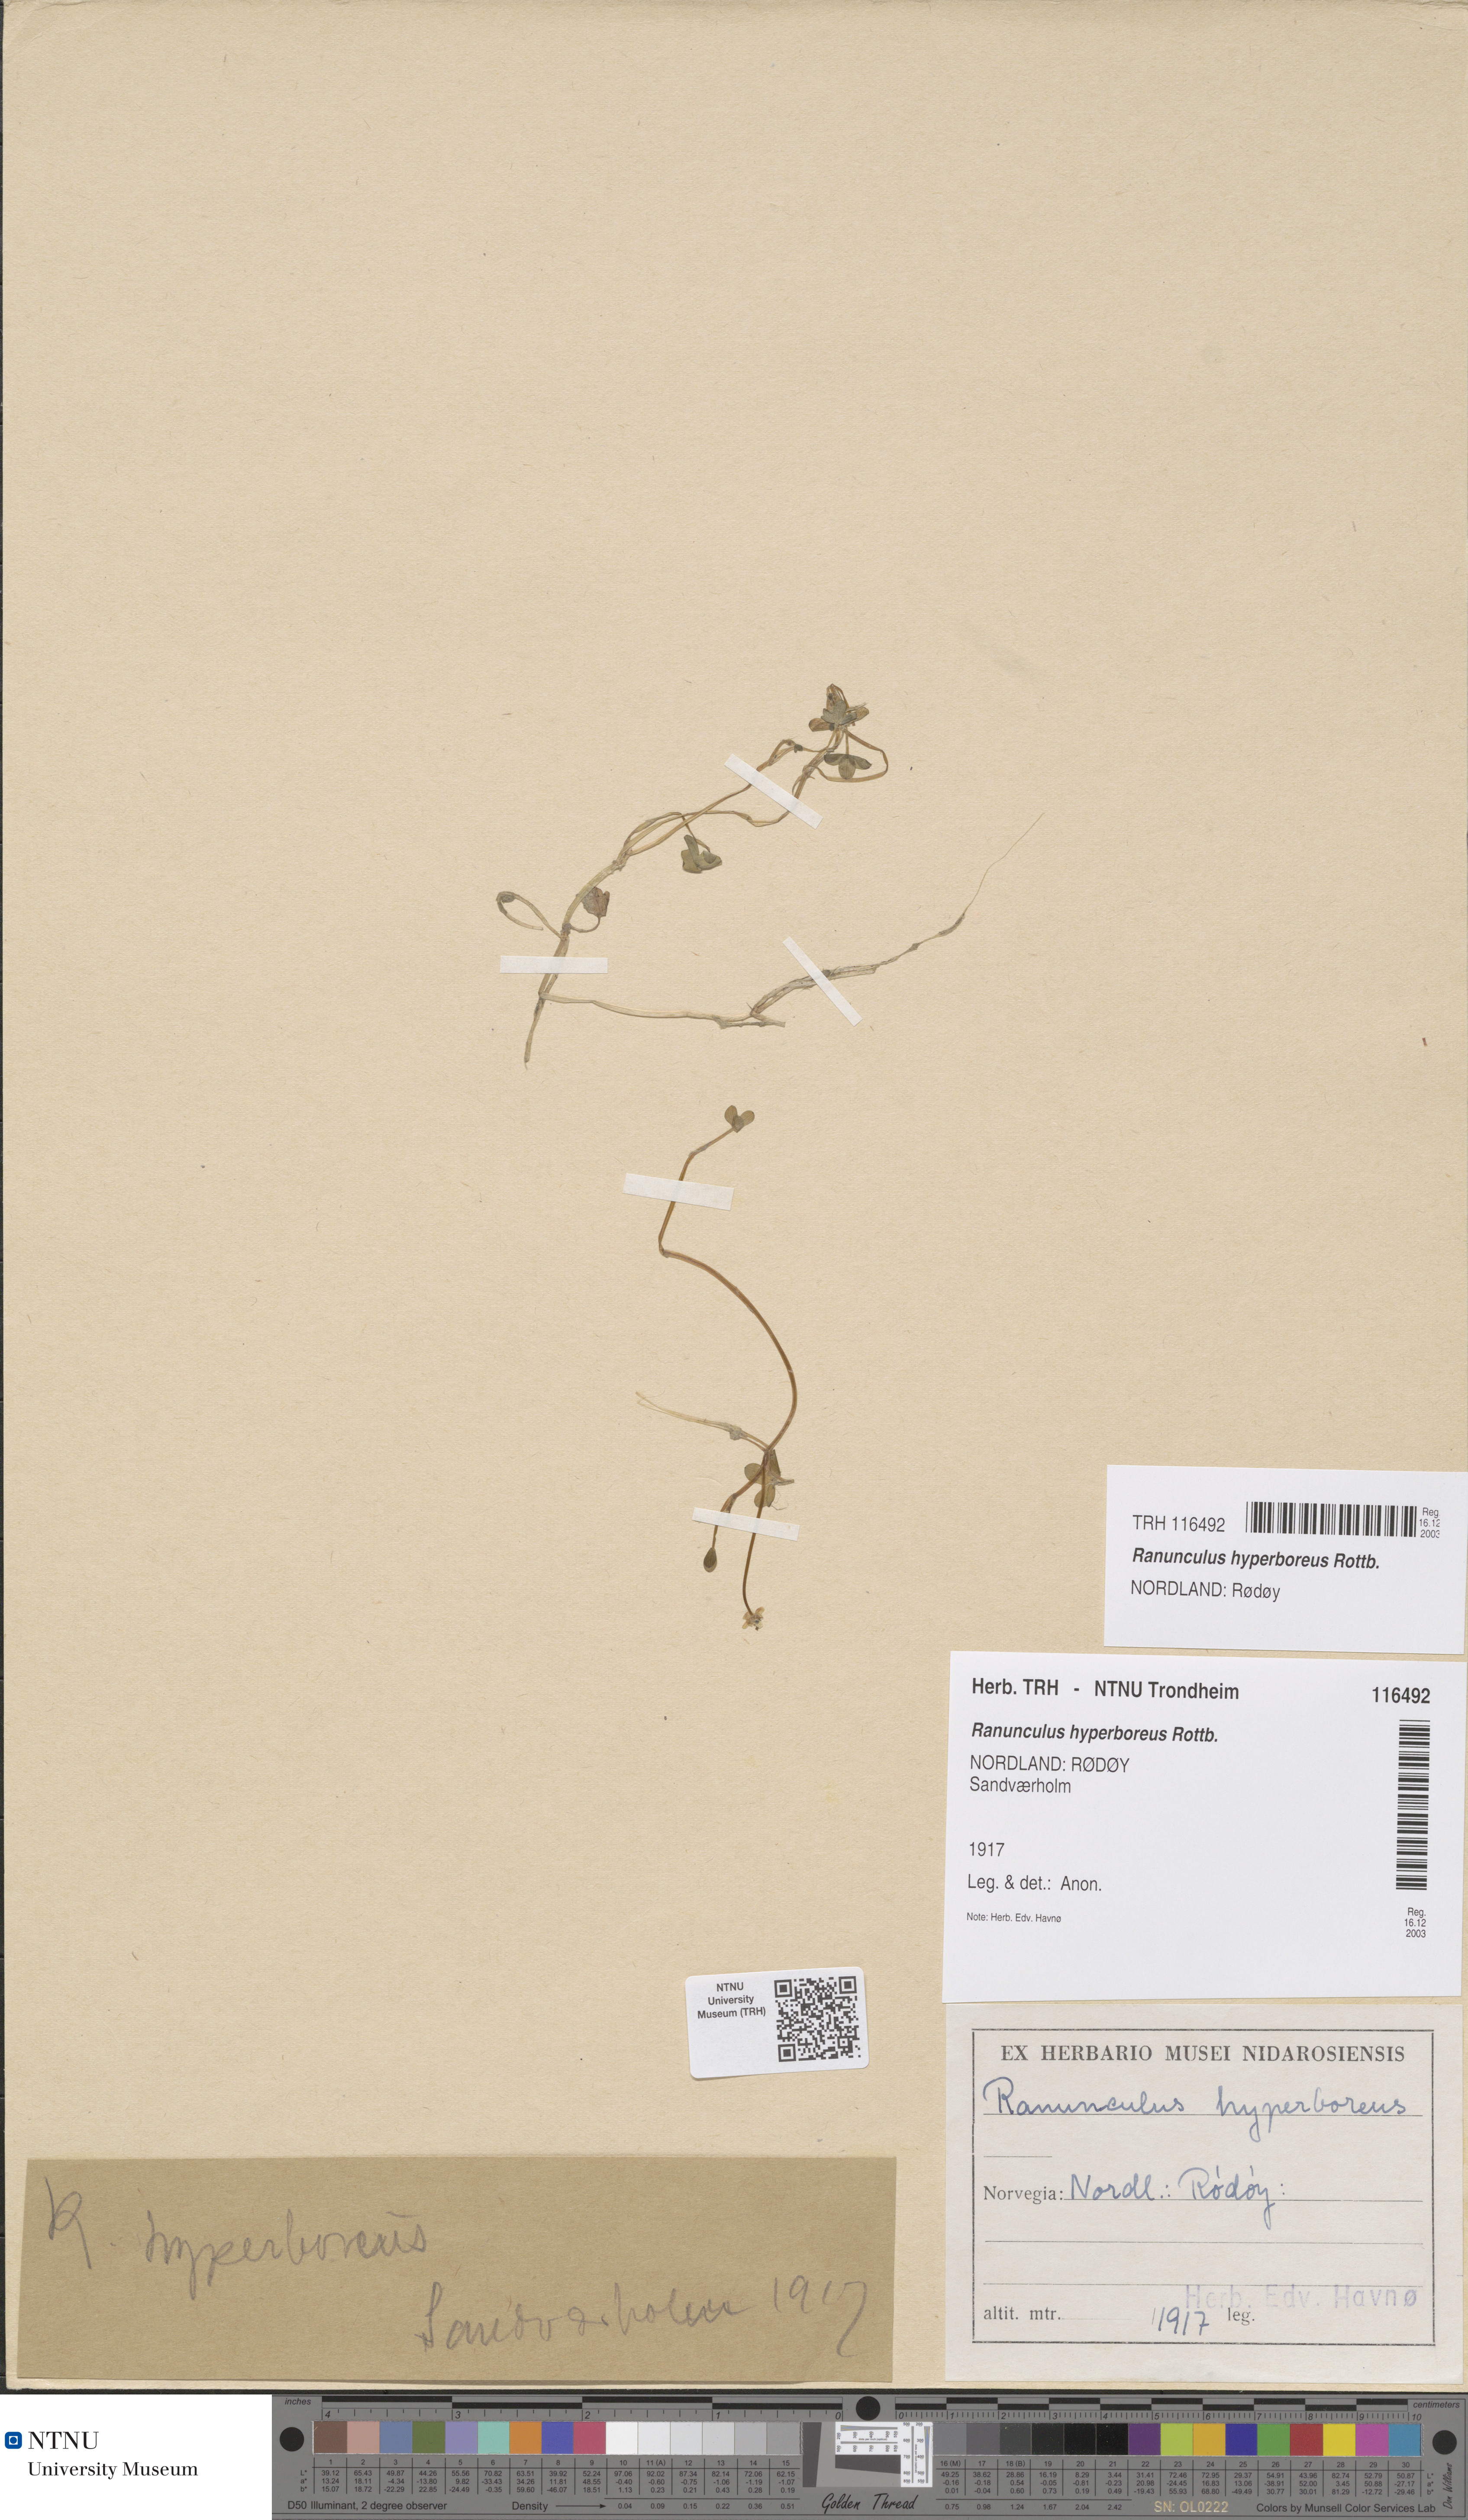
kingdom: Plantae
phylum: Tracheophyta
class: Magnoliopsida
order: Ranunculales
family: Ranunculaceae
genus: Ranunculus
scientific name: Ranunculus hyperboreus
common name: Arctic buttercup
